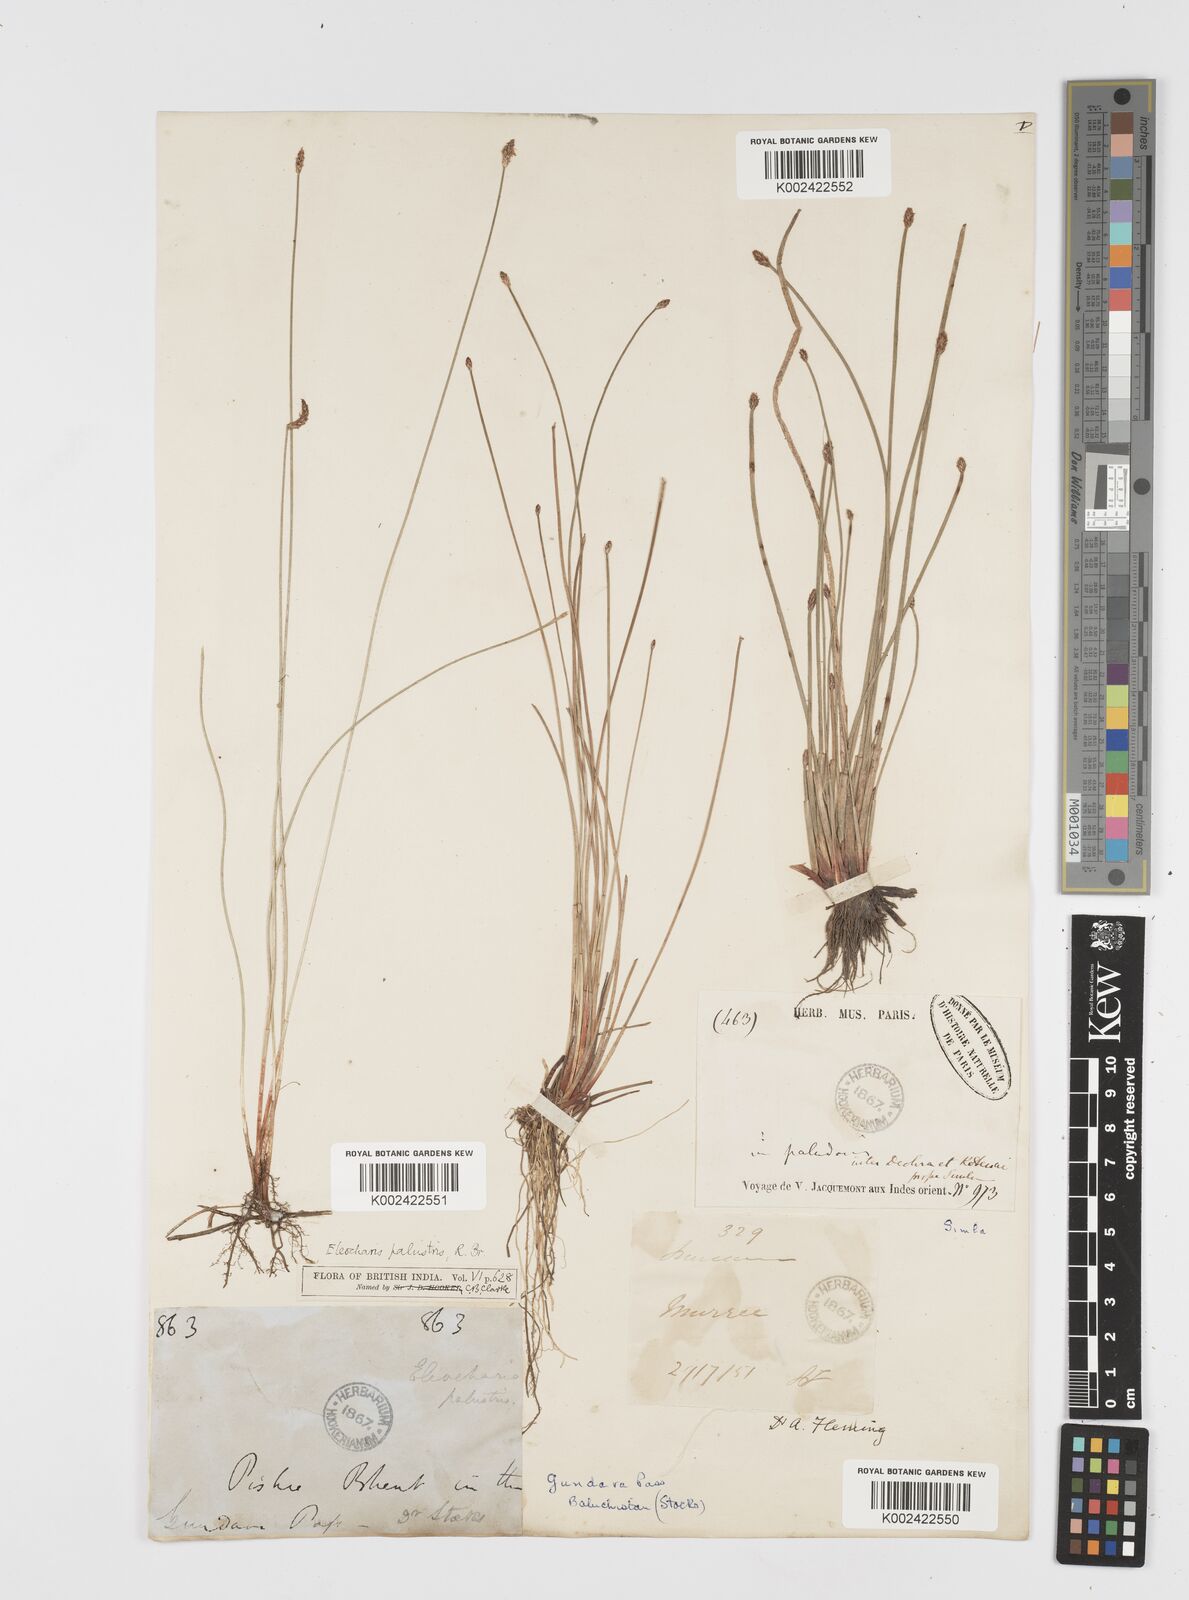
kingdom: Plantae
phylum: Tracheophyta
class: Liliopsida
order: Poales
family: Cyperaceae
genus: Eleocharis
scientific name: Eleocharis palustris
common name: Common spike-rush
